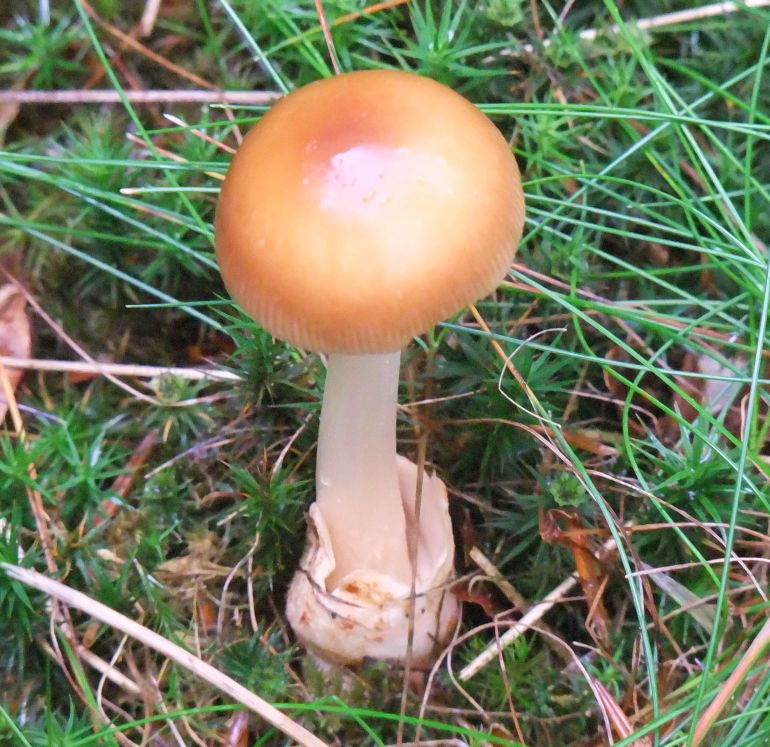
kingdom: Fungi
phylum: Basidiomycota
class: Agaricomycetes
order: Agaricales
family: Amanitaceae
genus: Amanita
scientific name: Amanita fulva
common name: brun kam-fluesvamp
